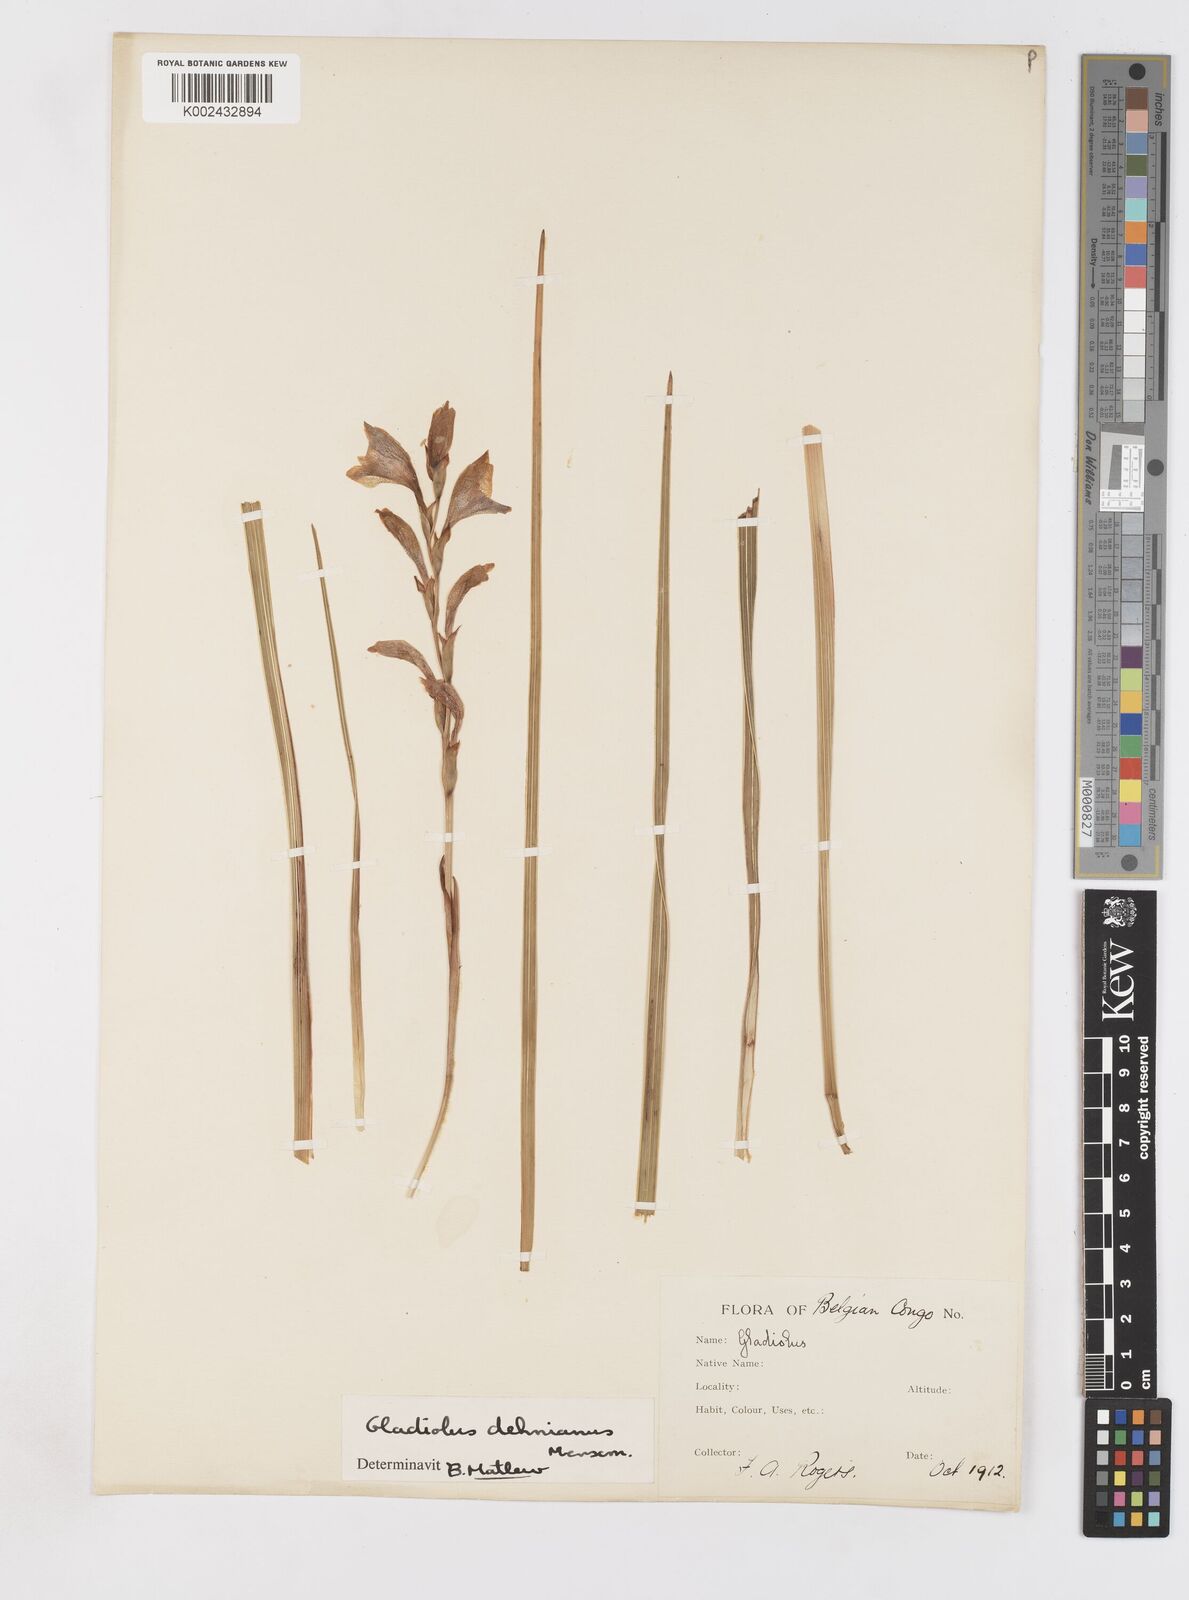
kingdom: Plantae
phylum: Tracheophyta
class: Liliopsida
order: Asparagales
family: Iridaceae
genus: Gladiolus
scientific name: Gladiolus sericeovillosus
